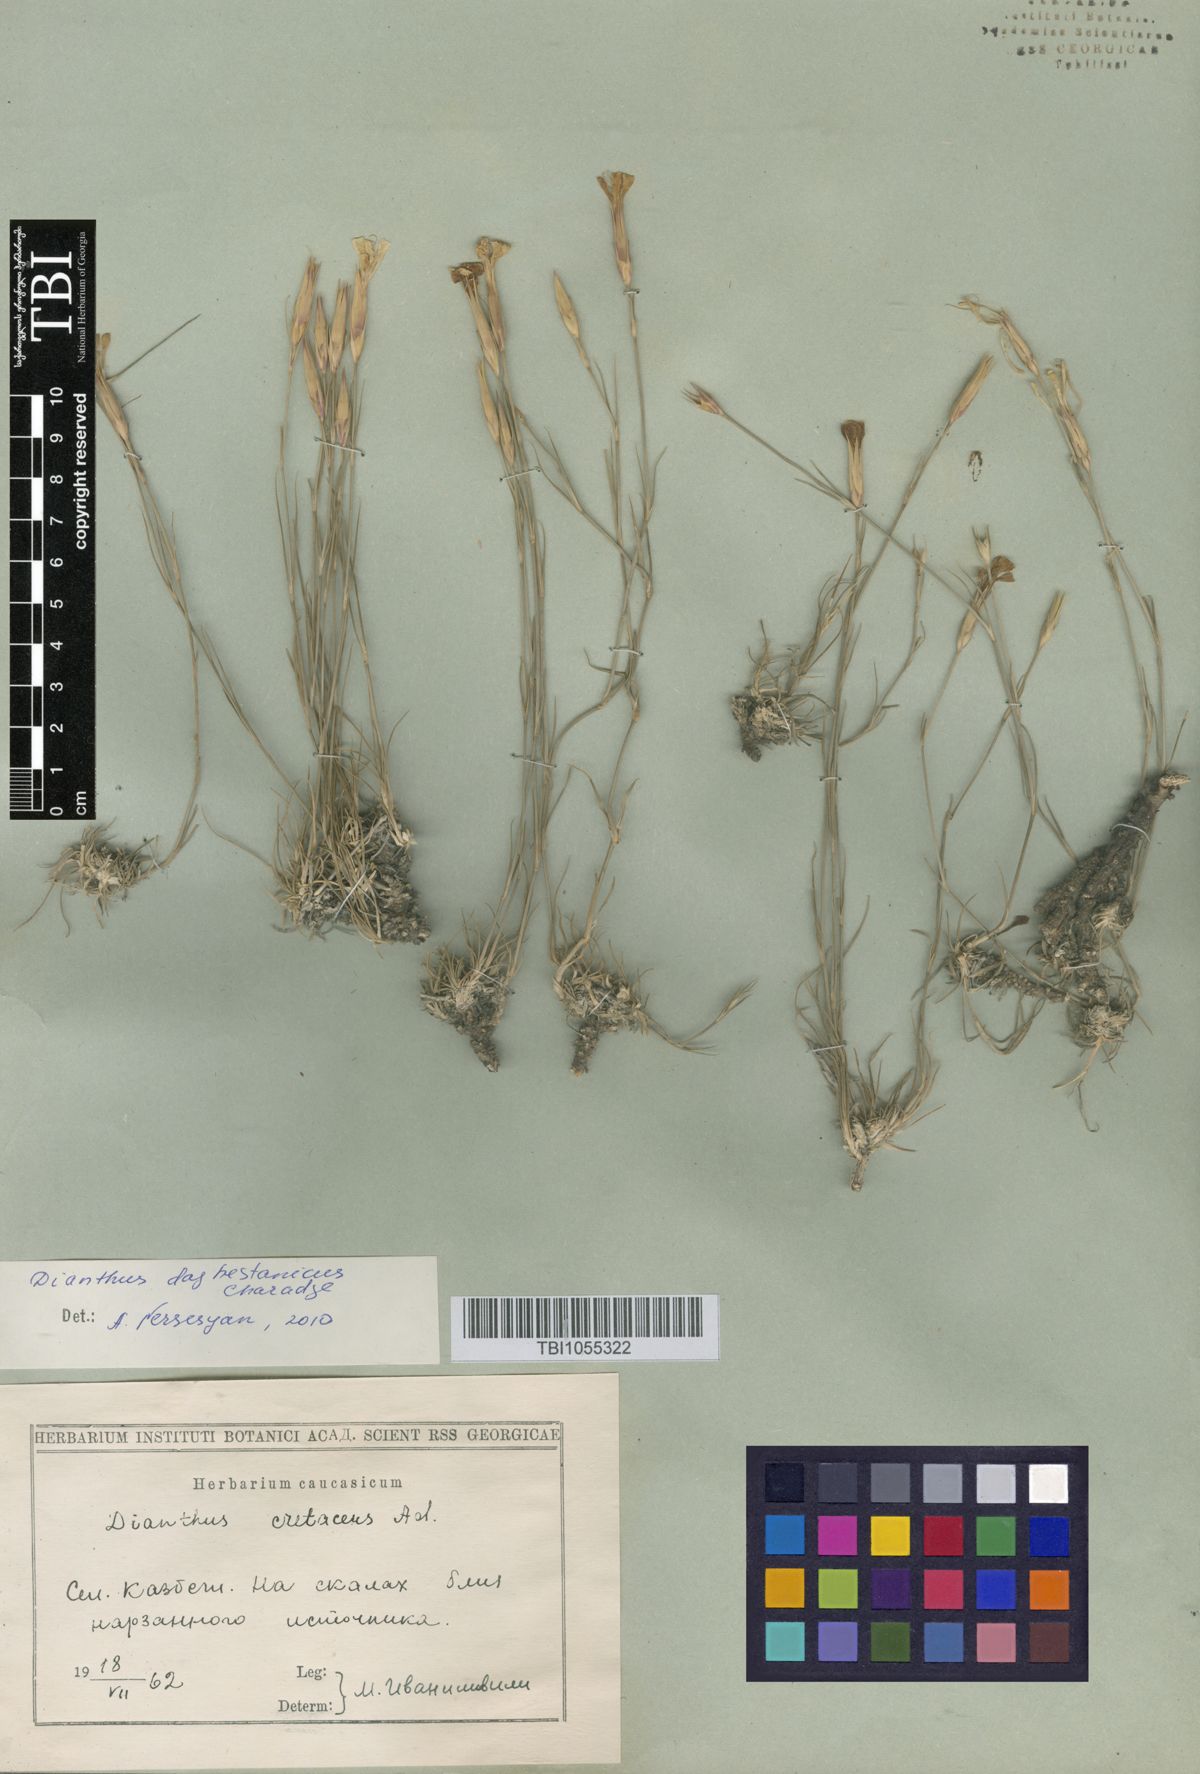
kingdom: Plantae
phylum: Tracheophyta
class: Magnoliopsida
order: Caryophyllales
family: Caryophyllaceae
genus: Dianthus
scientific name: Dianthus cretaceus
